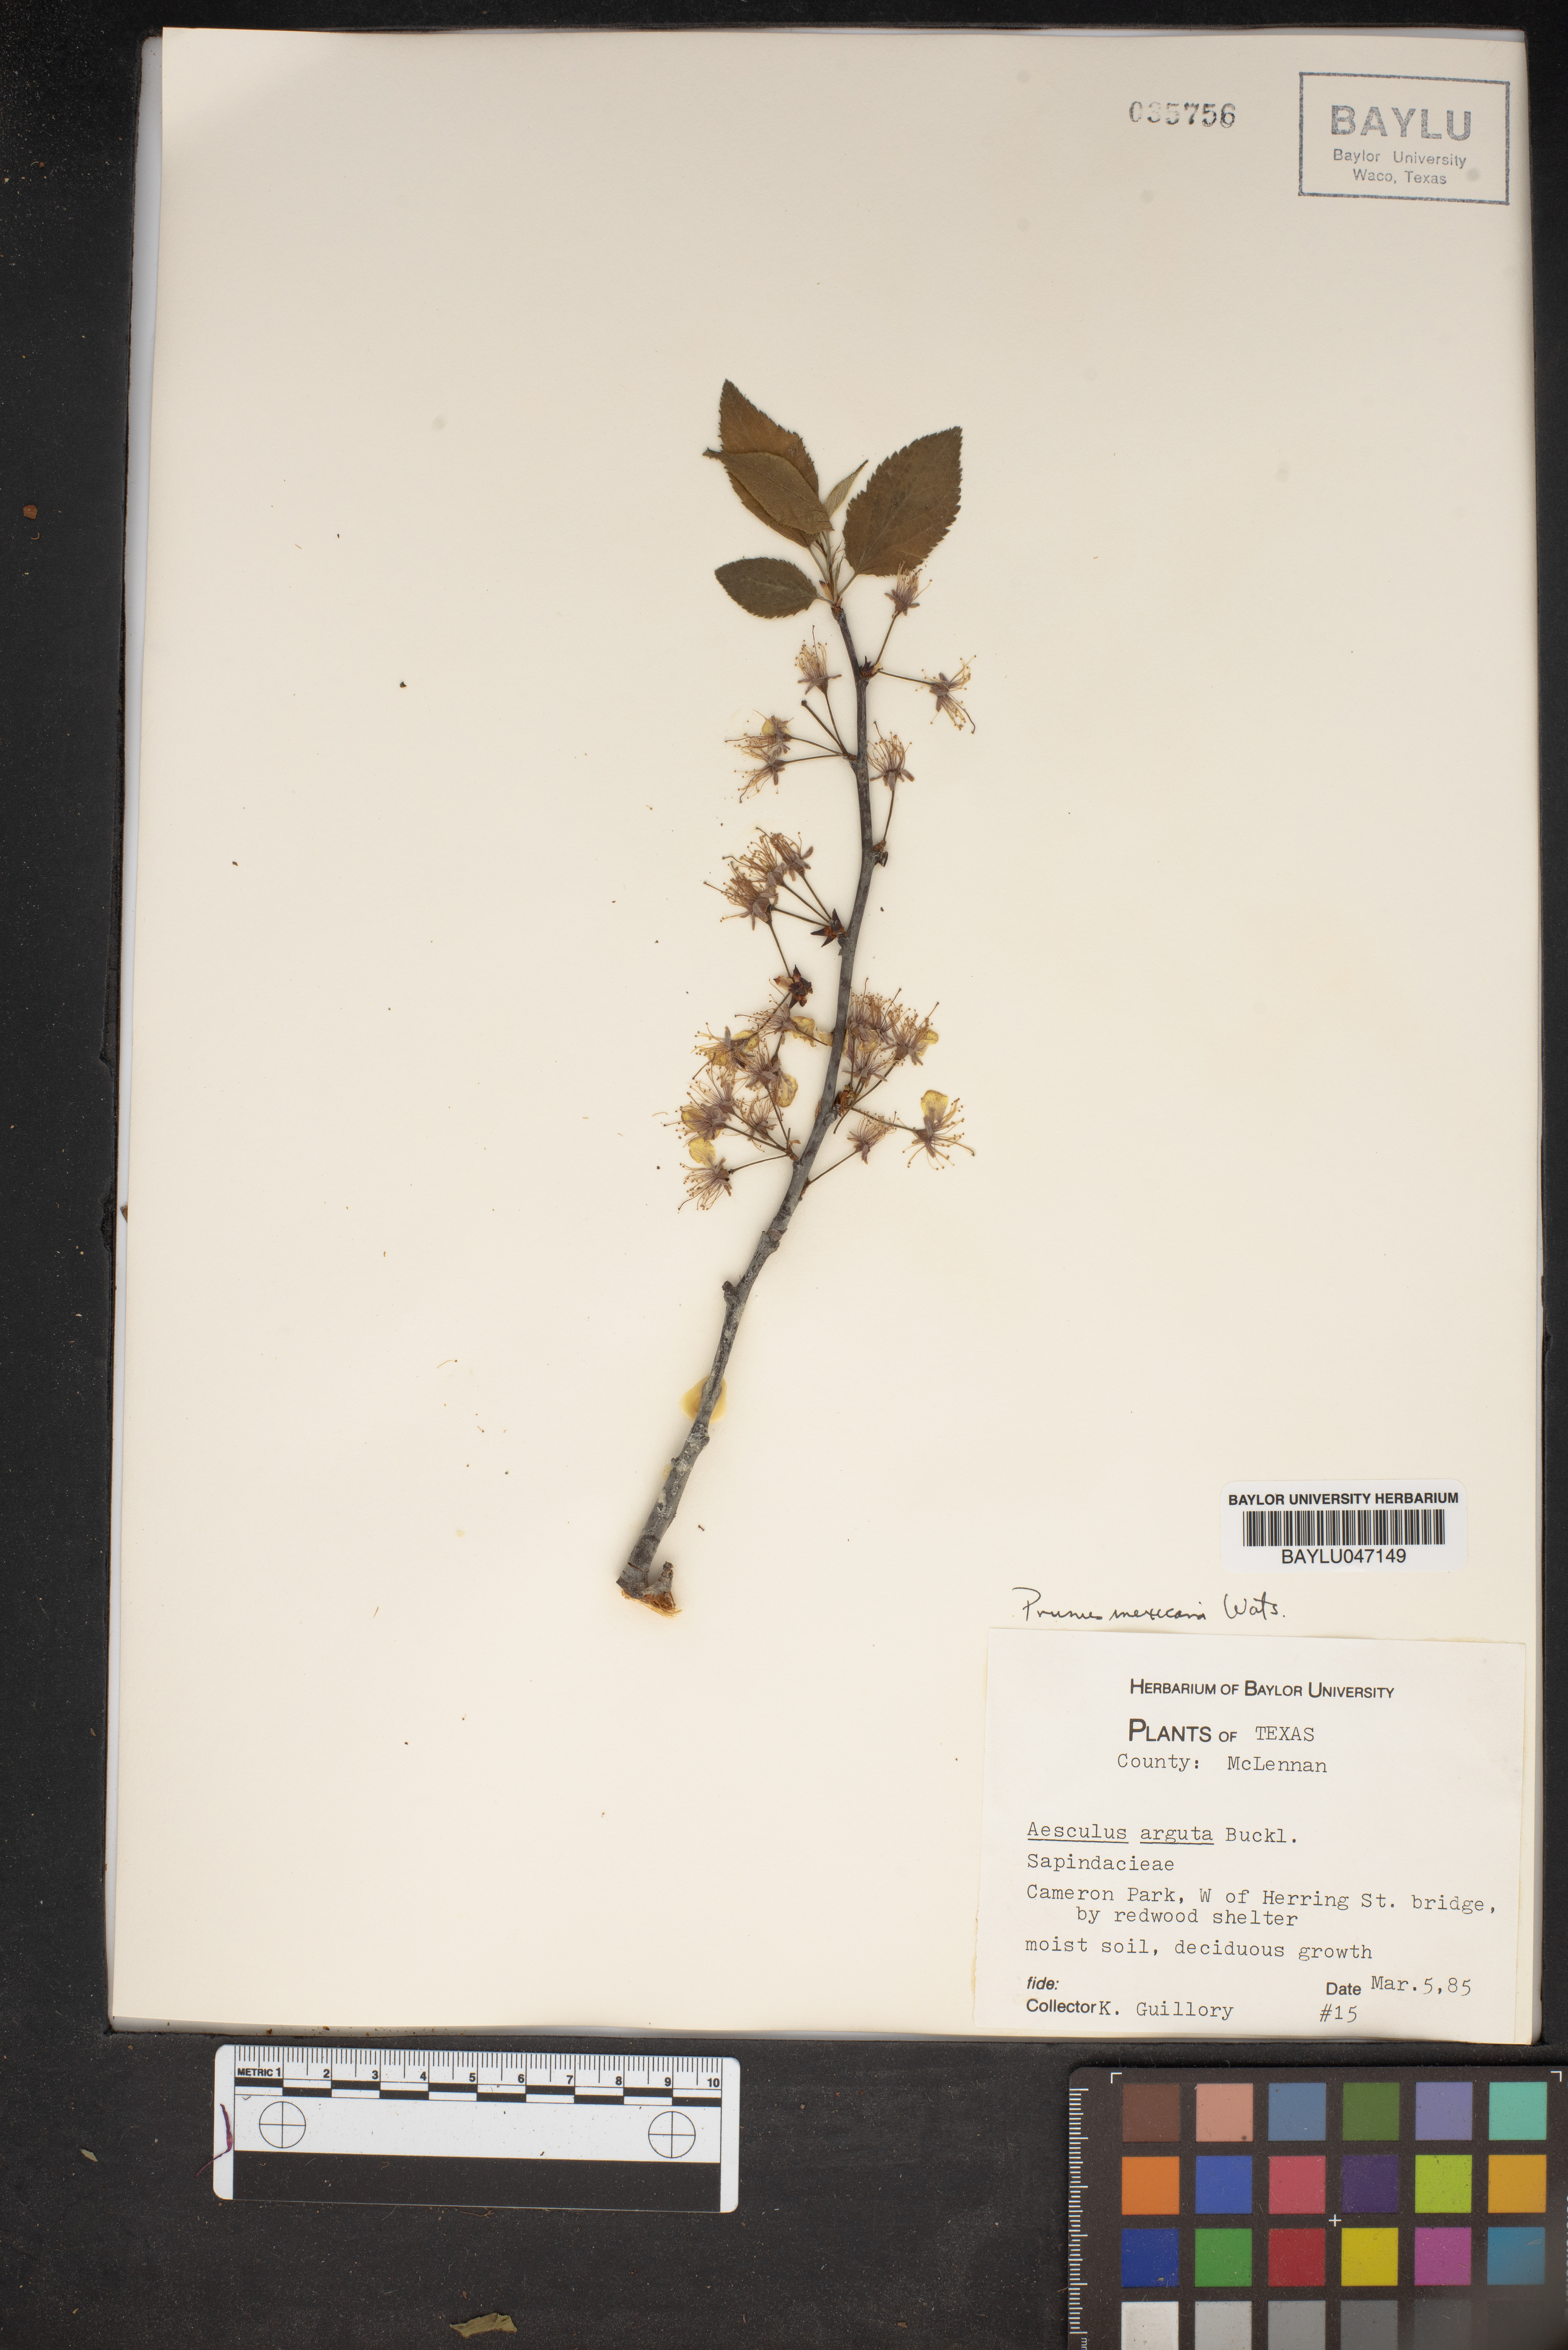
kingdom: Plantae
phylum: Tracheophyta
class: Magnoliopsida
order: Rosales
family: Rosaceae
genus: Prunus
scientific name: Prunus mexicana
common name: Mexican plum
